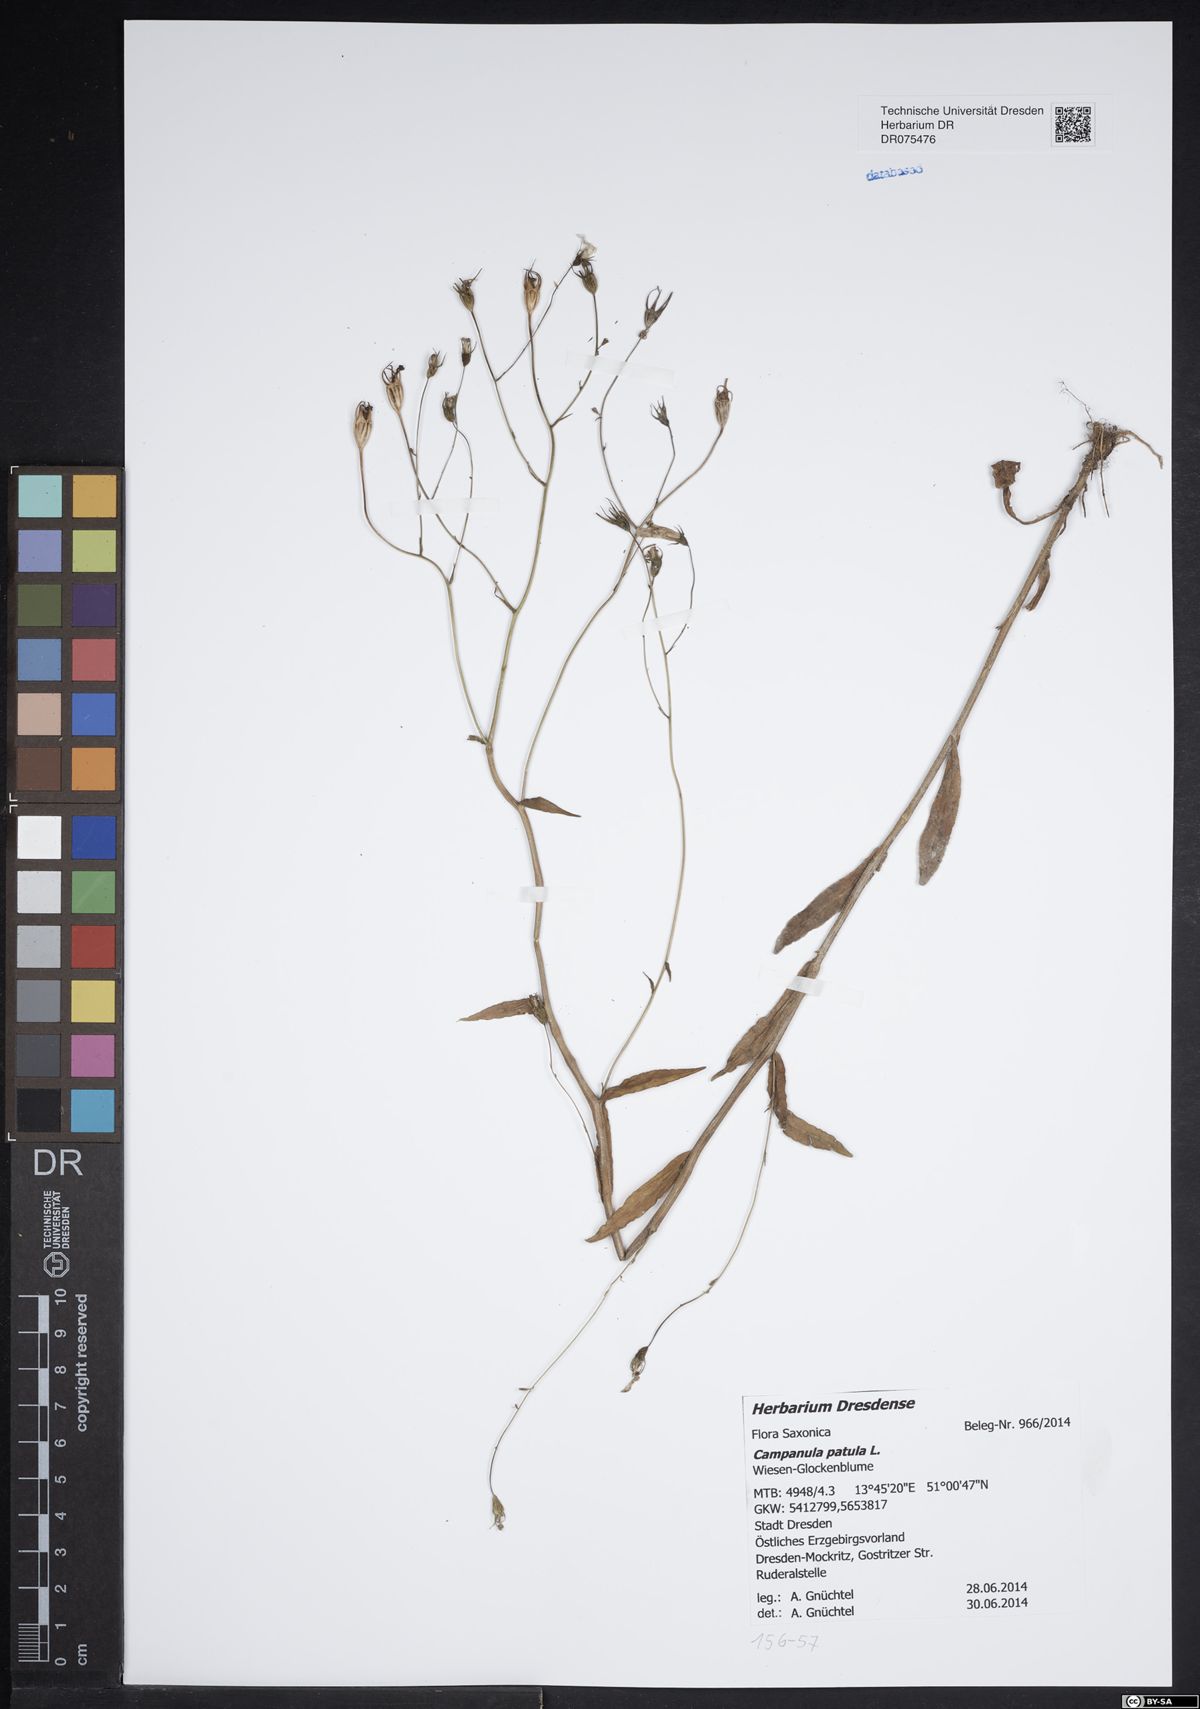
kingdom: Plantae
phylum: Tracheophyta
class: Magnoliopsida
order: Asterales
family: Campanulaceae
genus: Campanula
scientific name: Campanula patula
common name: Spreading bellflower
